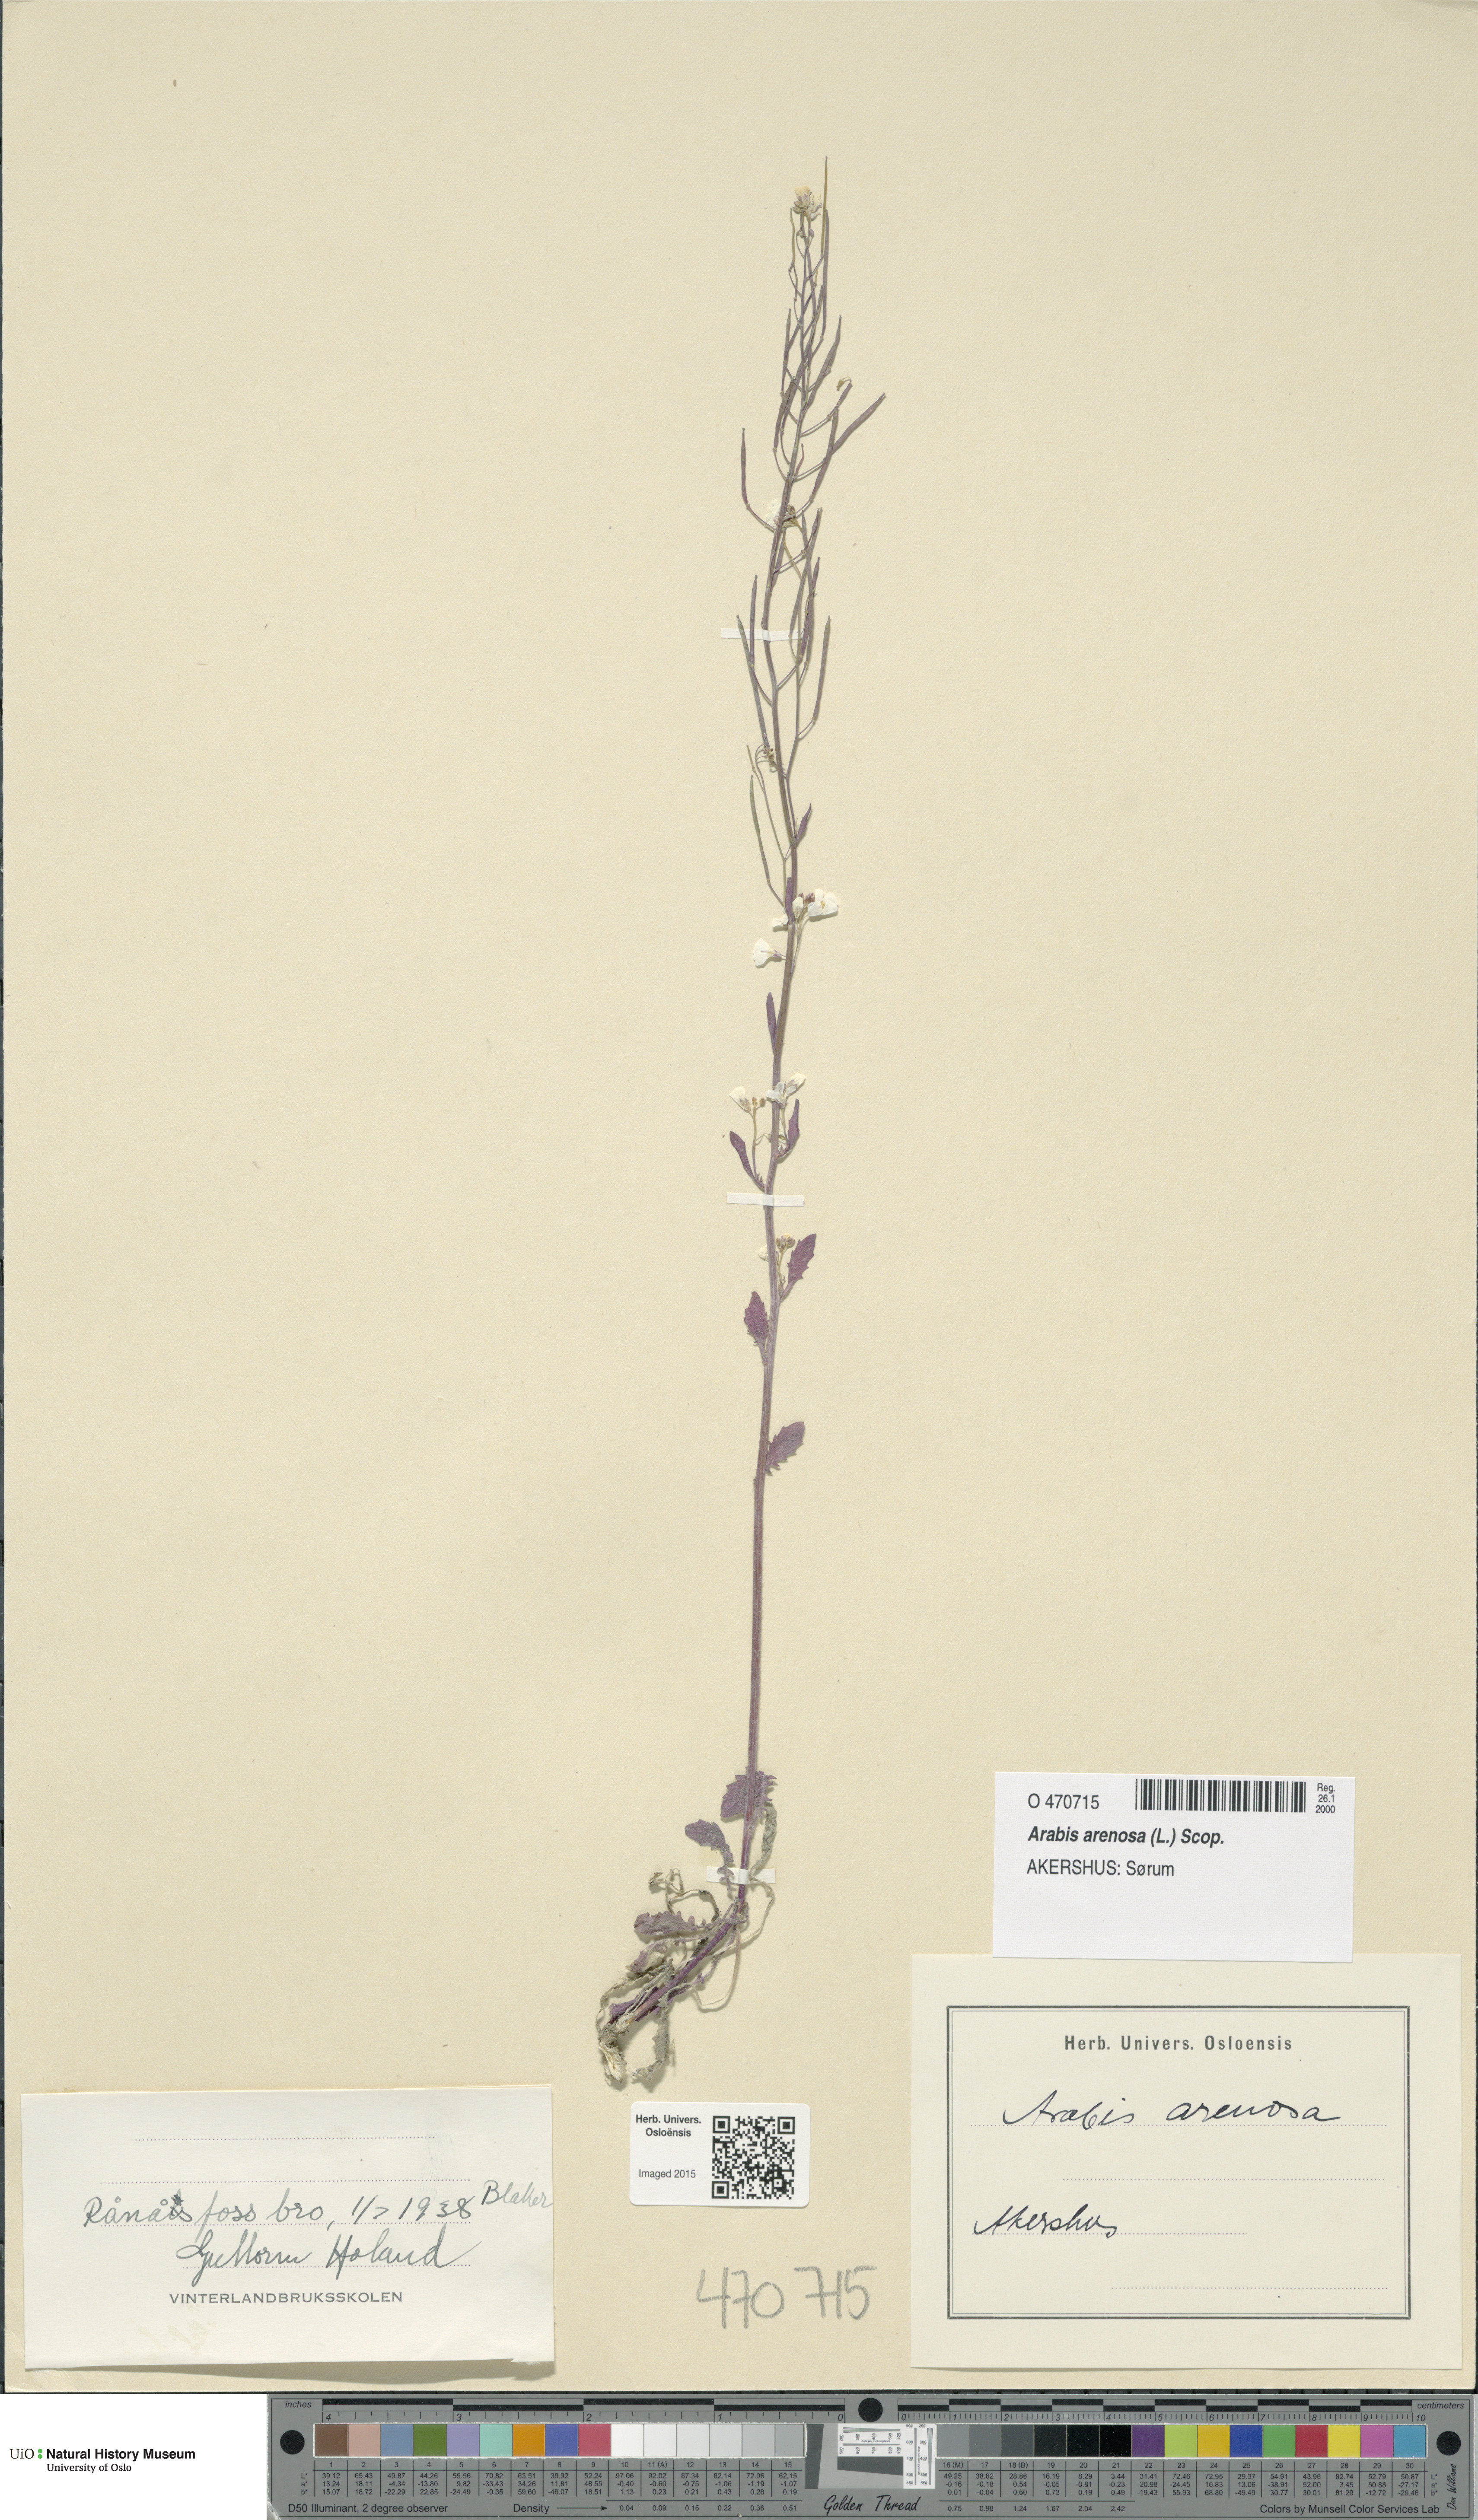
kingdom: Plantae
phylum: Tracheophyta
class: Magnoliopsida
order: Brassicales
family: Brassicaceae
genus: Arabidopsis
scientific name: Arabidopsis arenosa
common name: Sand rock-cress
